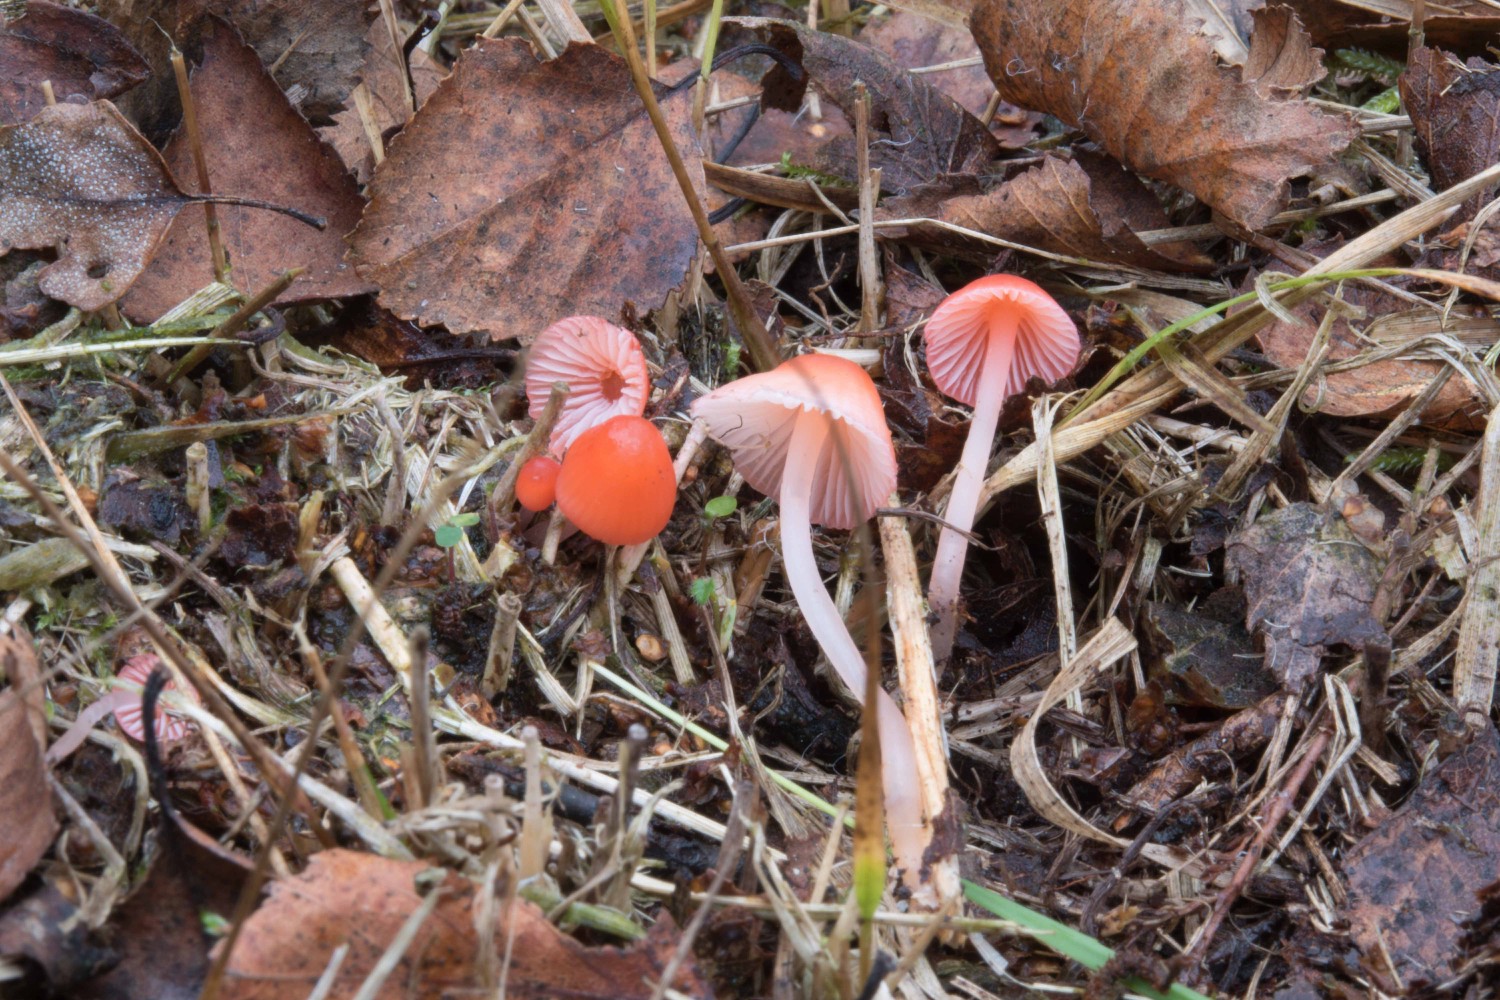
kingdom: Fungi
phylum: Basidiomycota
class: Agaricomycetes
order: Agaricales
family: Mycenaceae
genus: Atheniella
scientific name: Atheniella adonis
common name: rønnerød huesvamp
